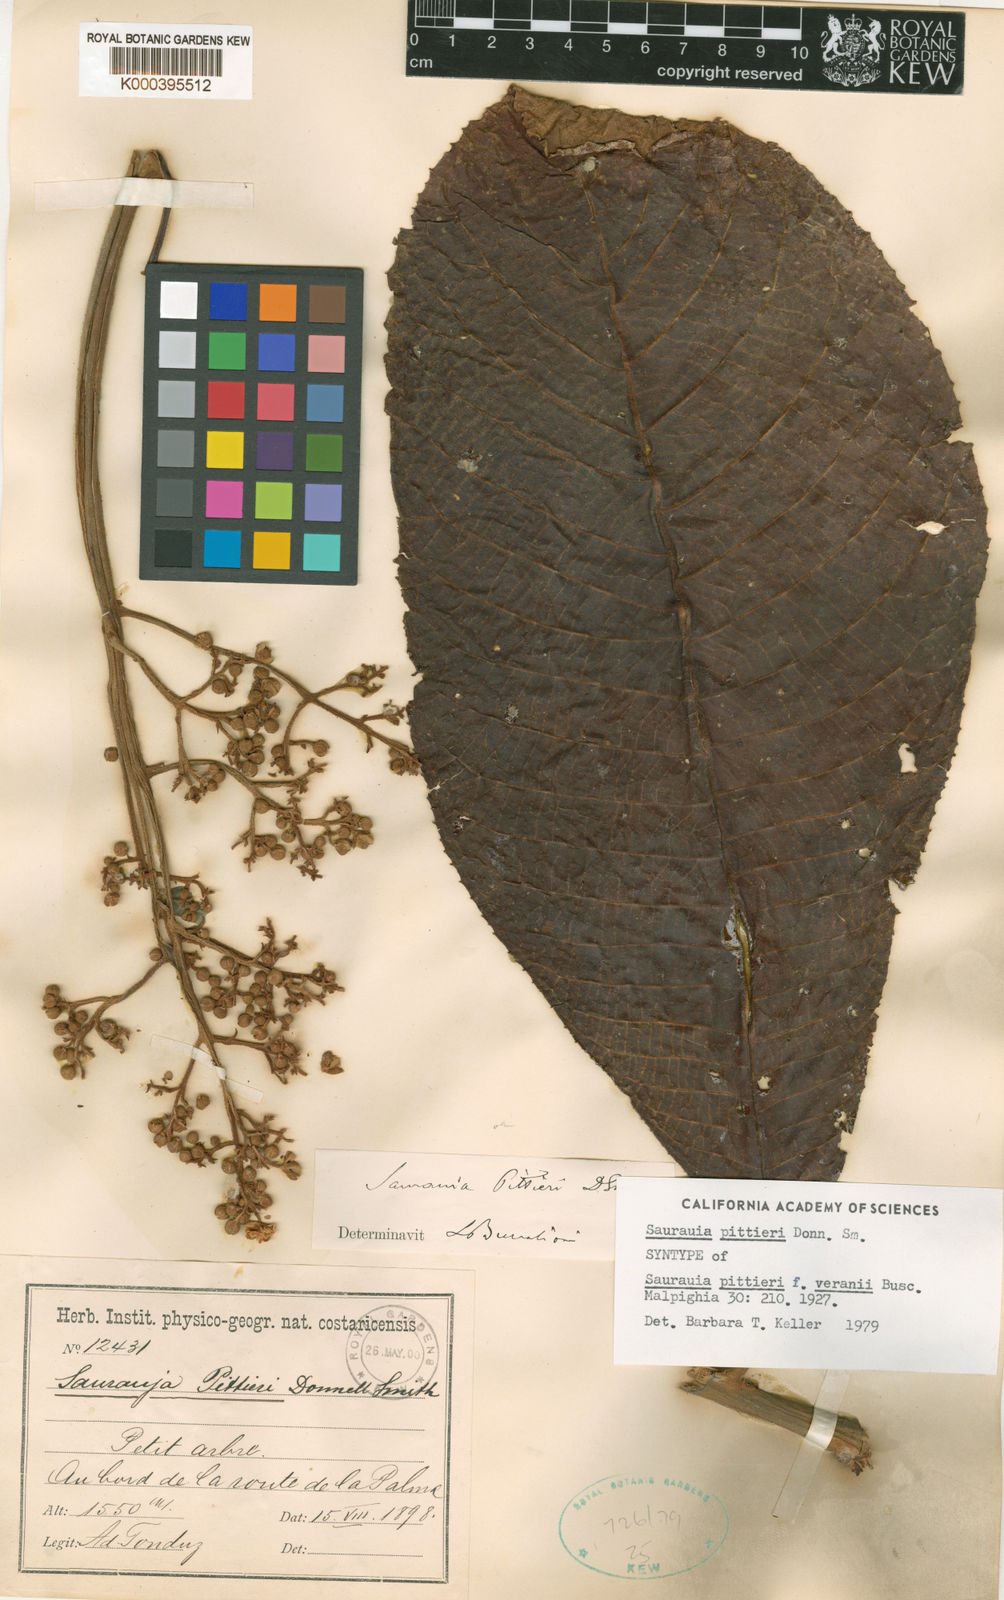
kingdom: Plantae
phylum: Tracheophyta
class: Magnoliopsida
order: Ericales
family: Actinidiaceae
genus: Saurauia
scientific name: Saurauia pittieri
